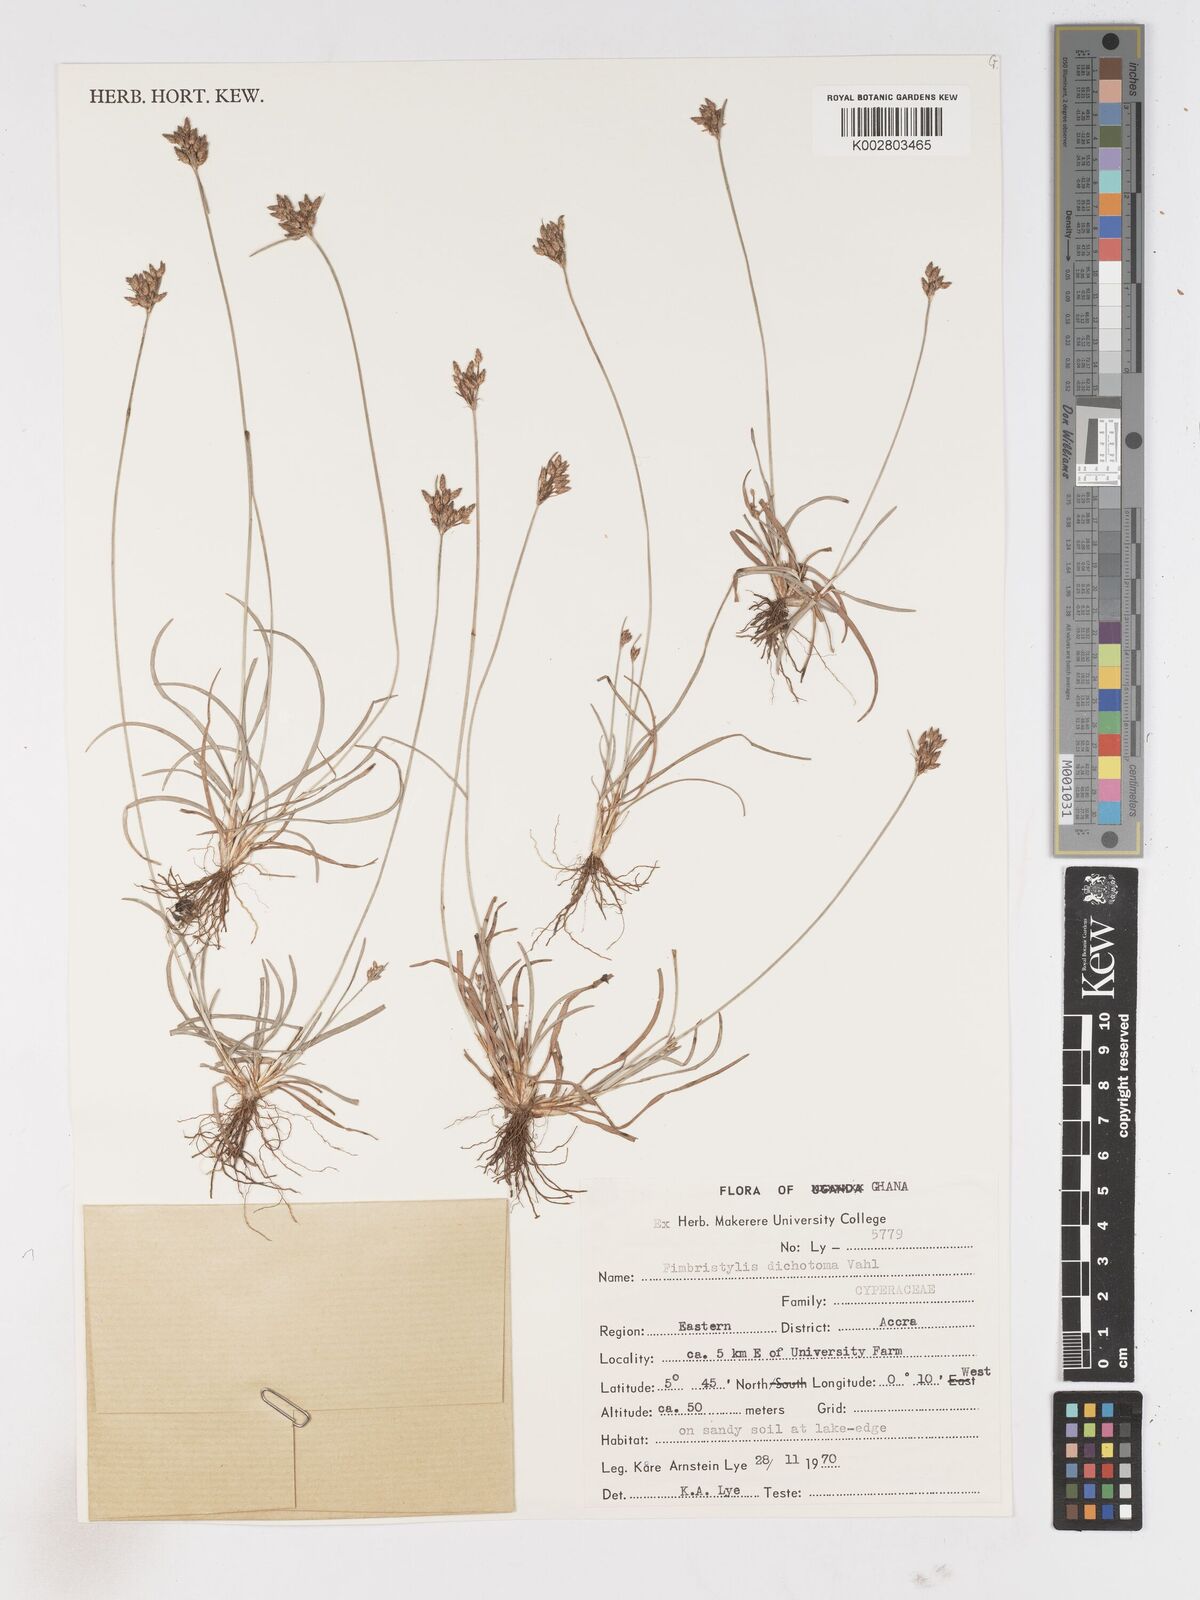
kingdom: Plantae
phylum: Tracheophyta
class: Liliopsida
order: Poales
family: Cyperaceae
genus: Fimbristylis
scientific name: Fimbristylis dichotoma
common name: Forked fimbry
